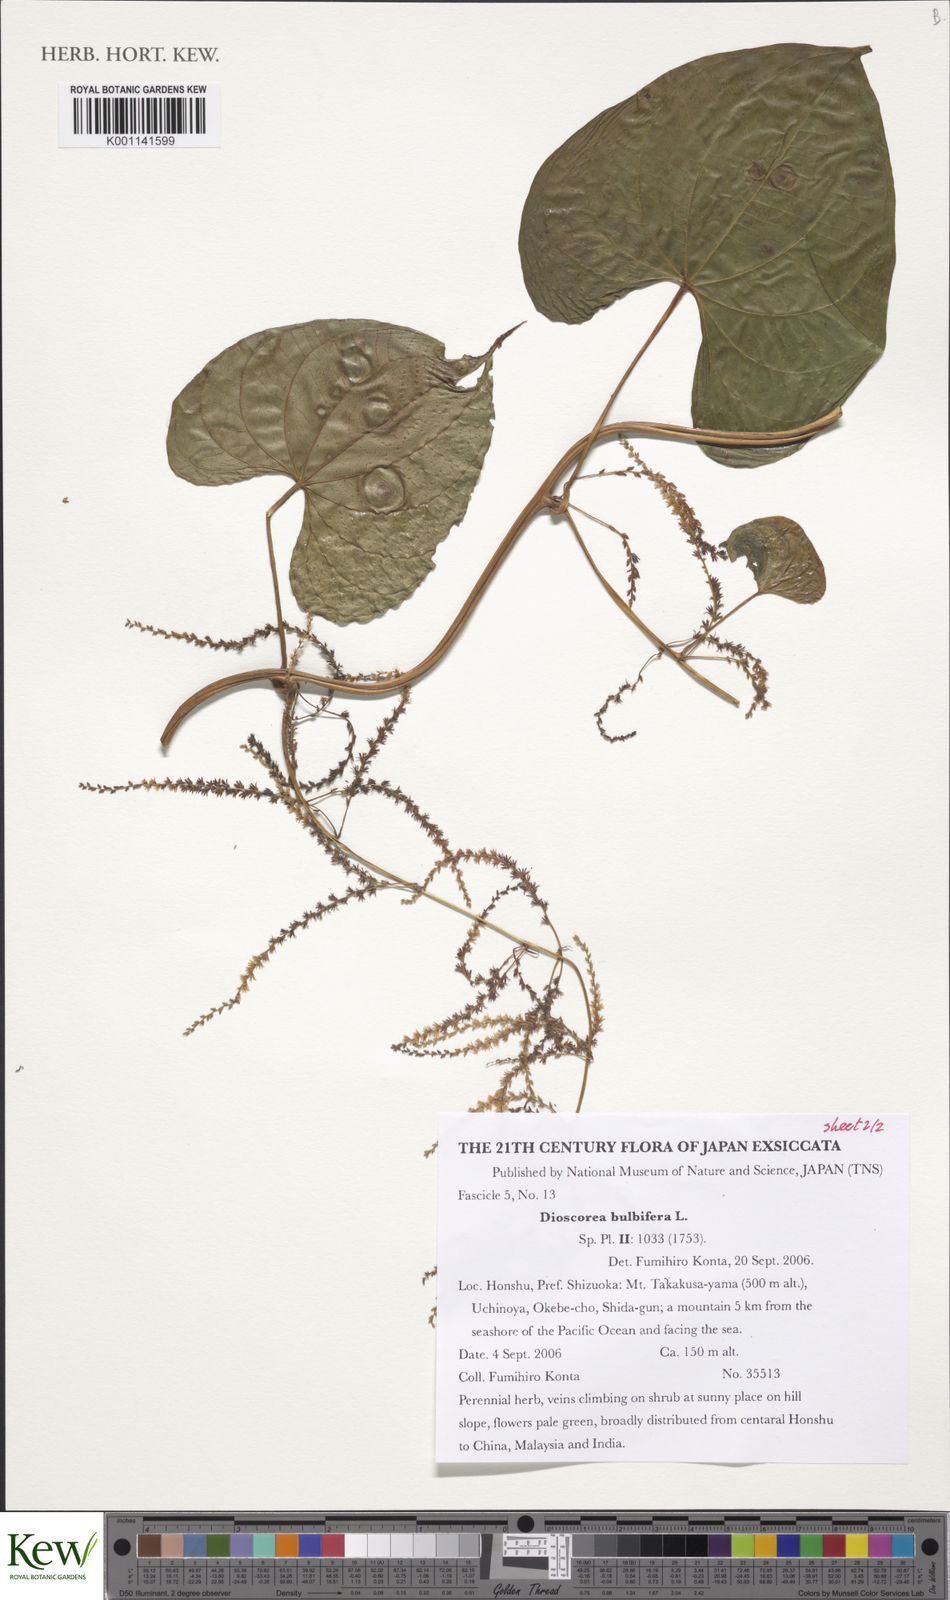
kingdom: Plantae
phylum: Tracheophyta
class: Liliopsida
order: Dioscoreales
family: Dioscoreaceae
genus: Dioscorea
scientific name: Dioscorea bulbifera
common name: Air yam
